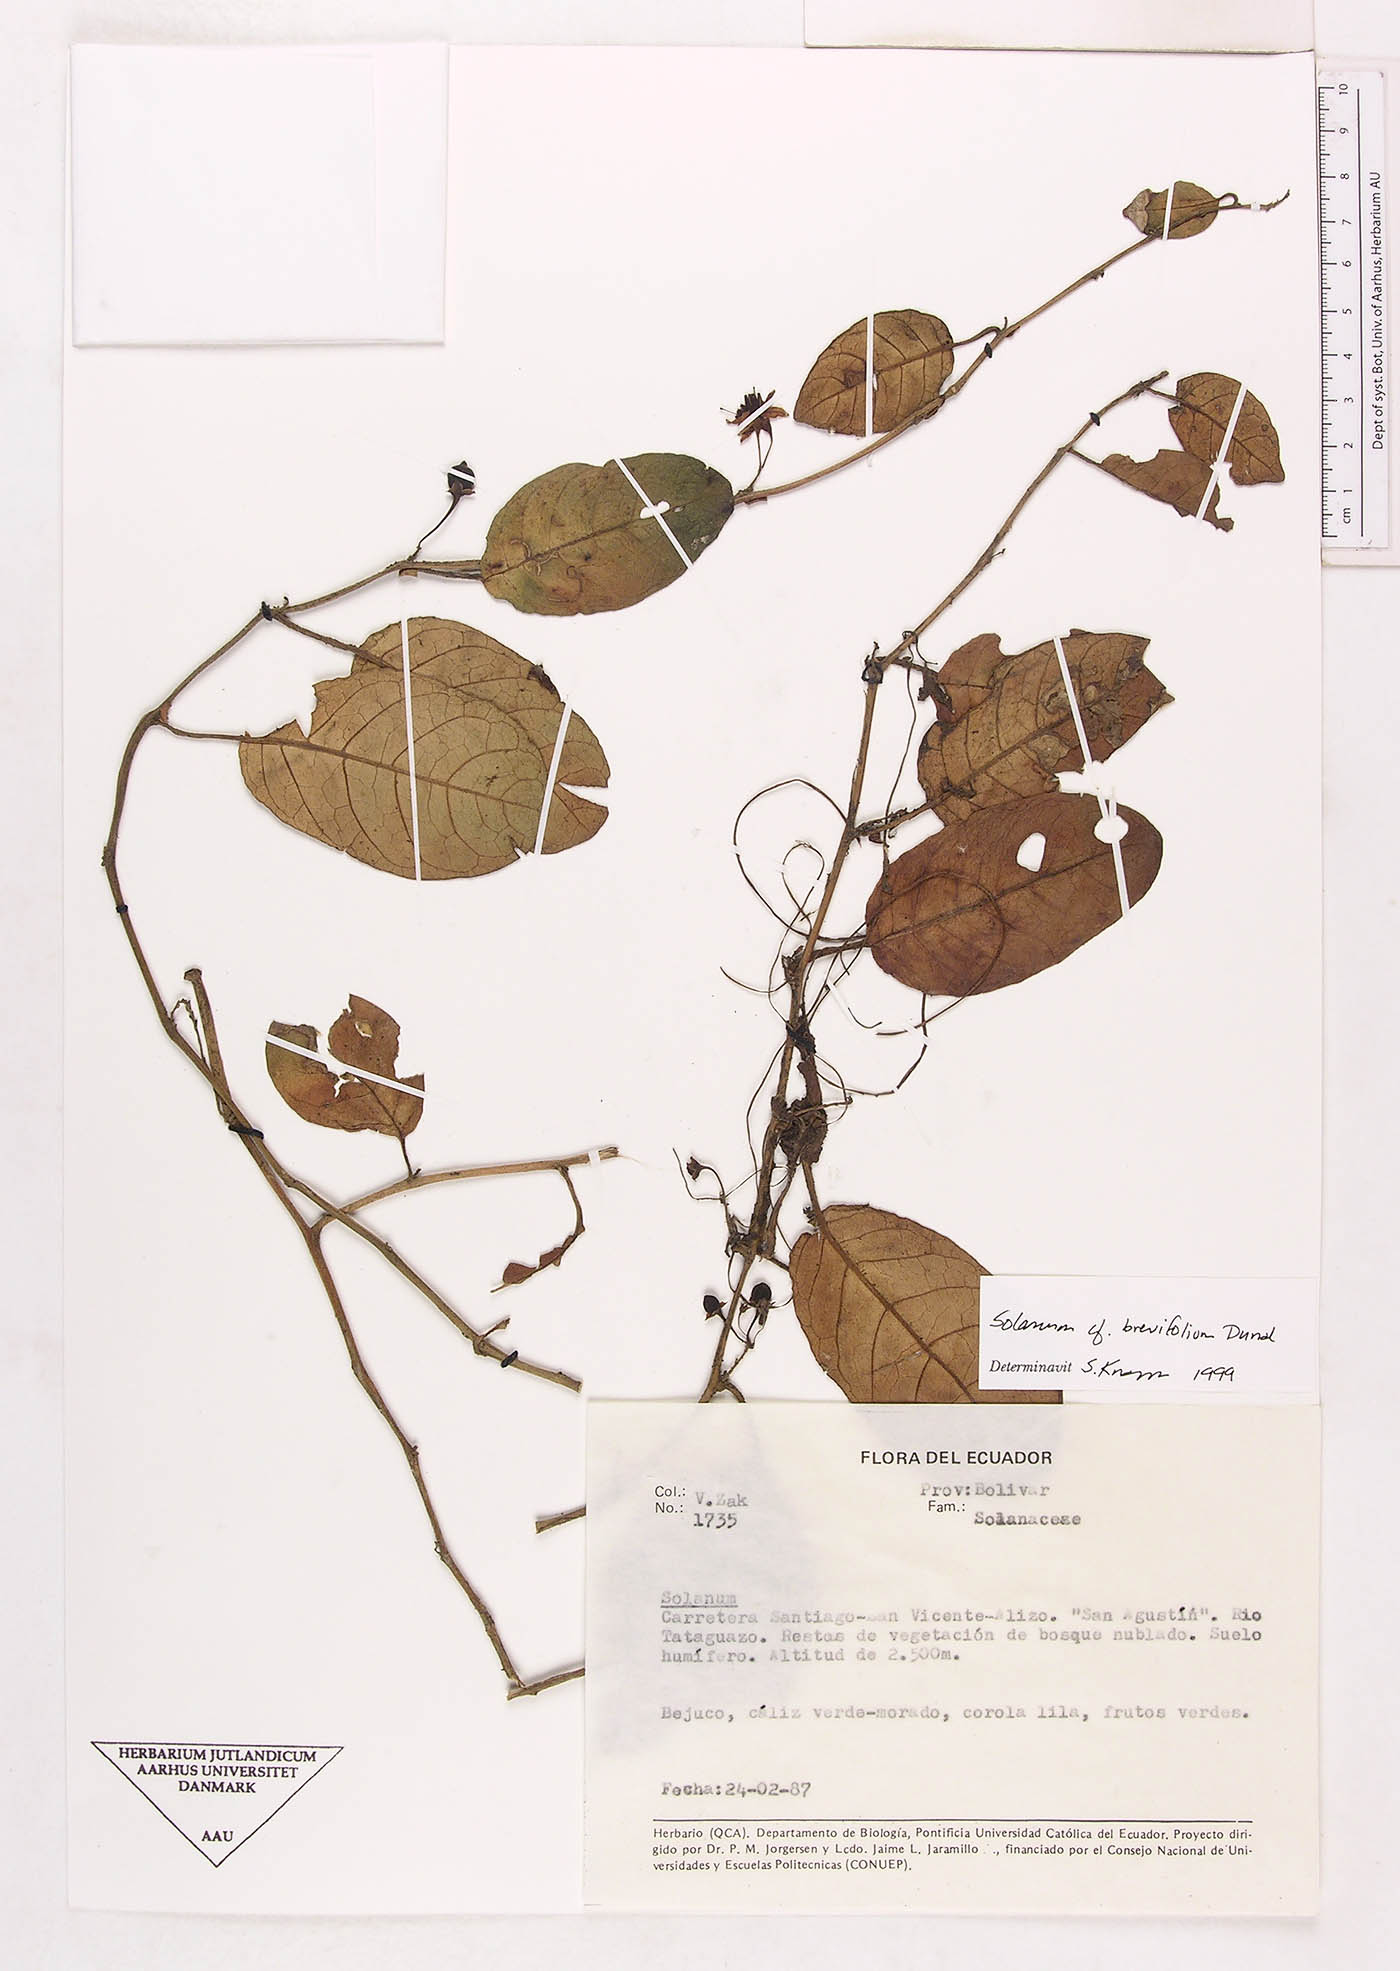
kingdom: Plantae
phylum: Tracheophyta
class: Magnoliopsida
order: Solanales
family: Solanaceae
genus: Solanum
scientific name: Solanum brevifolium
